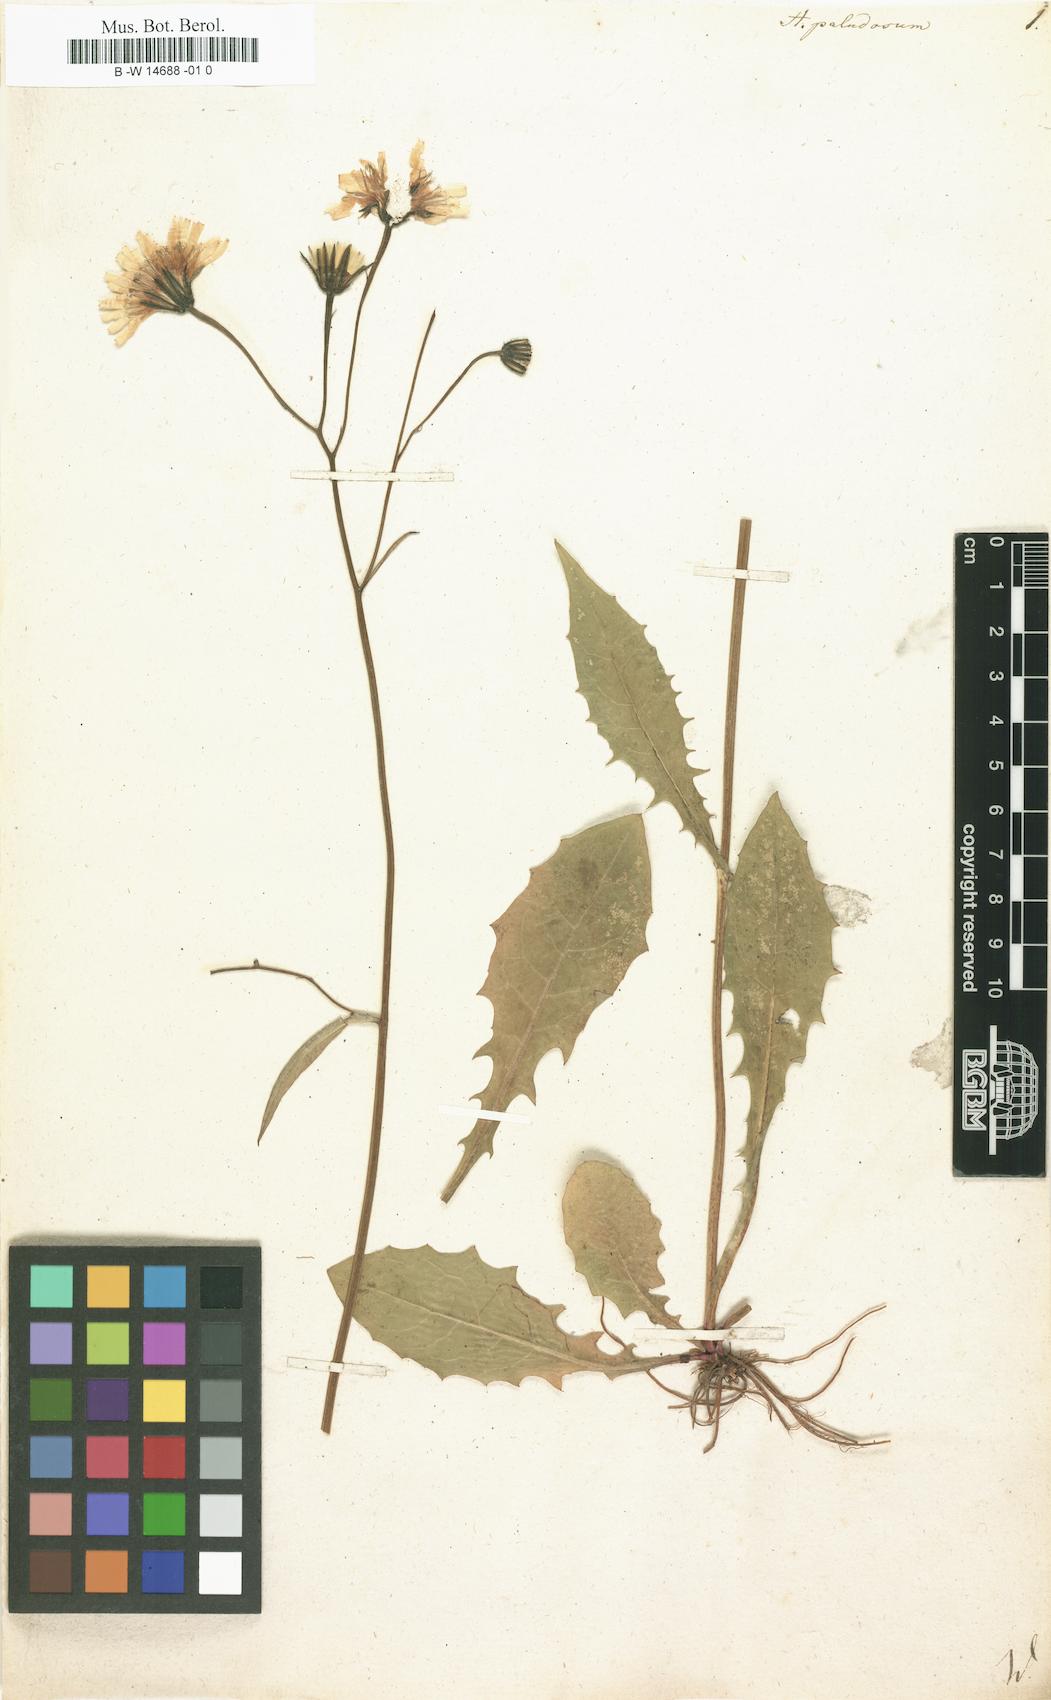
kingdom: Plantae
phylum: Tracheophyta
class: Magnoliopsida
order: Asterales
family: Asteraceae
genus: Crepis
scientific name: Crepis paludosa
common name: Marsh hawk's-beard
